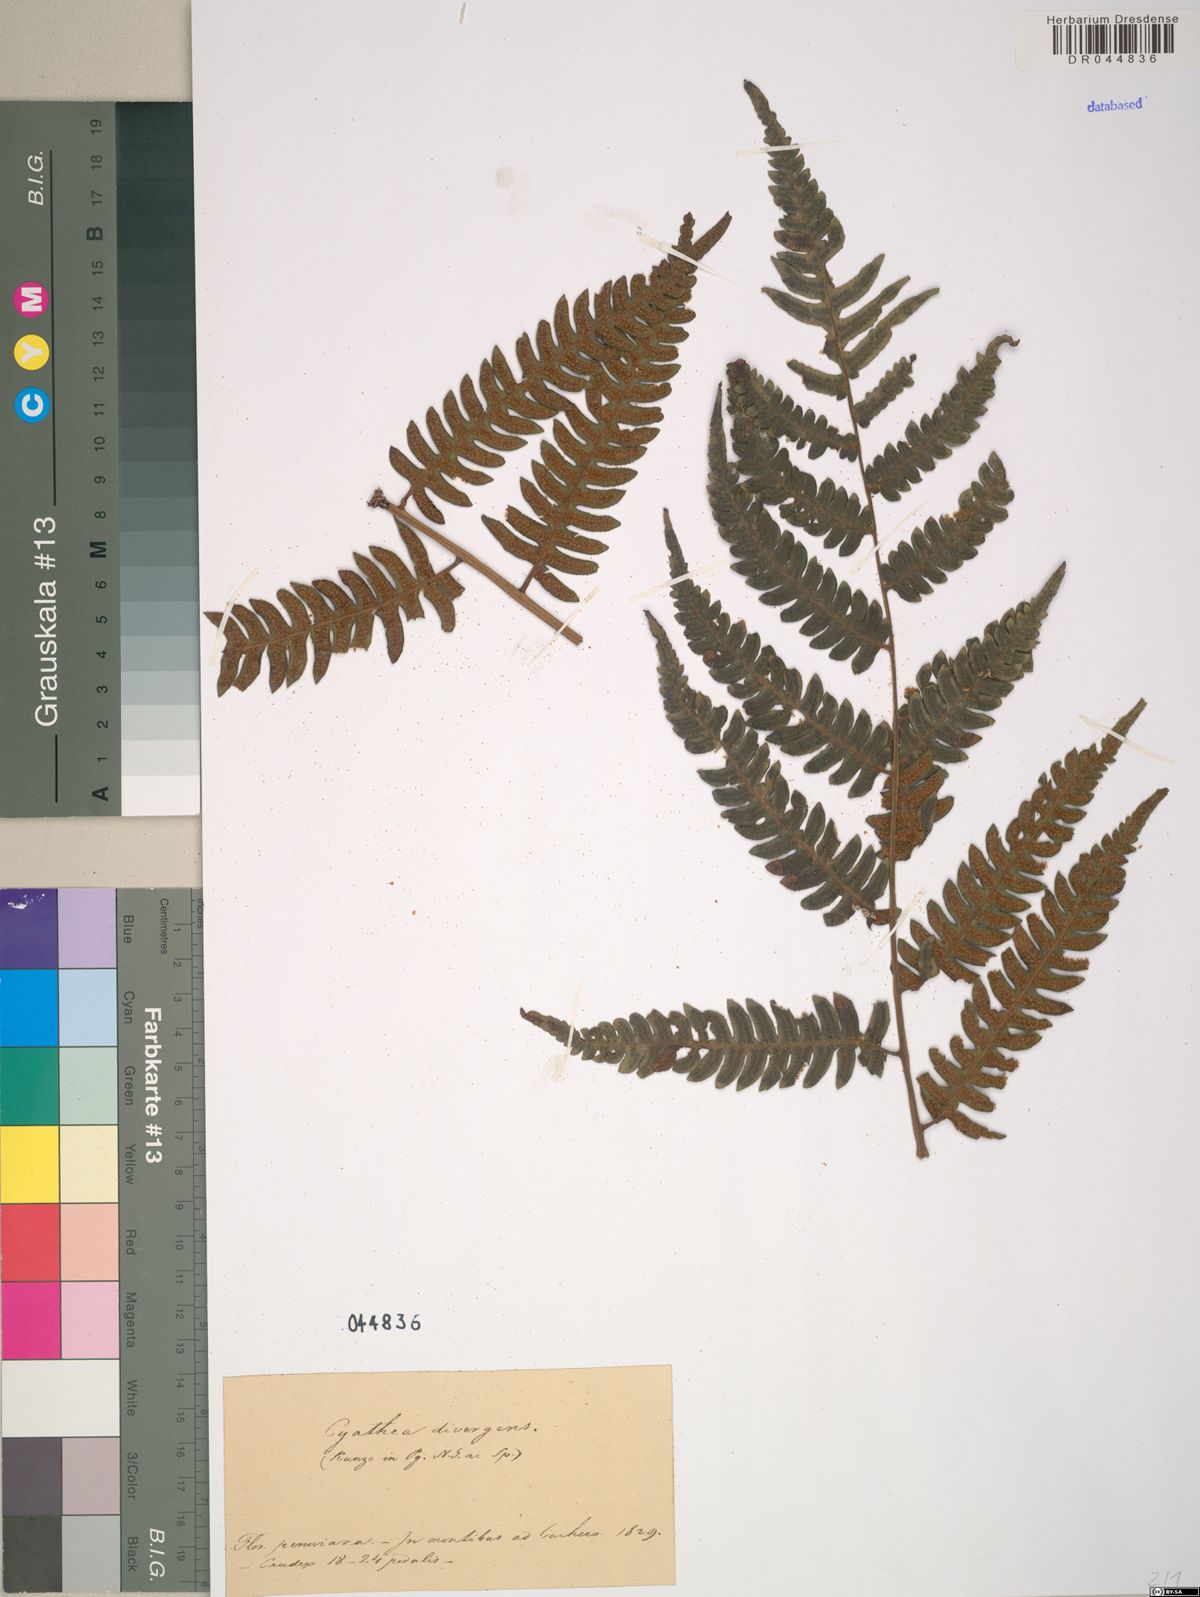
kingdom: Plantae
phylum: Tracheophyta
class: Polypodiopsida
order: Cyatheales
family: Cyatheaceae
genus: Cyathea
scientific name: Cyathea divergens
